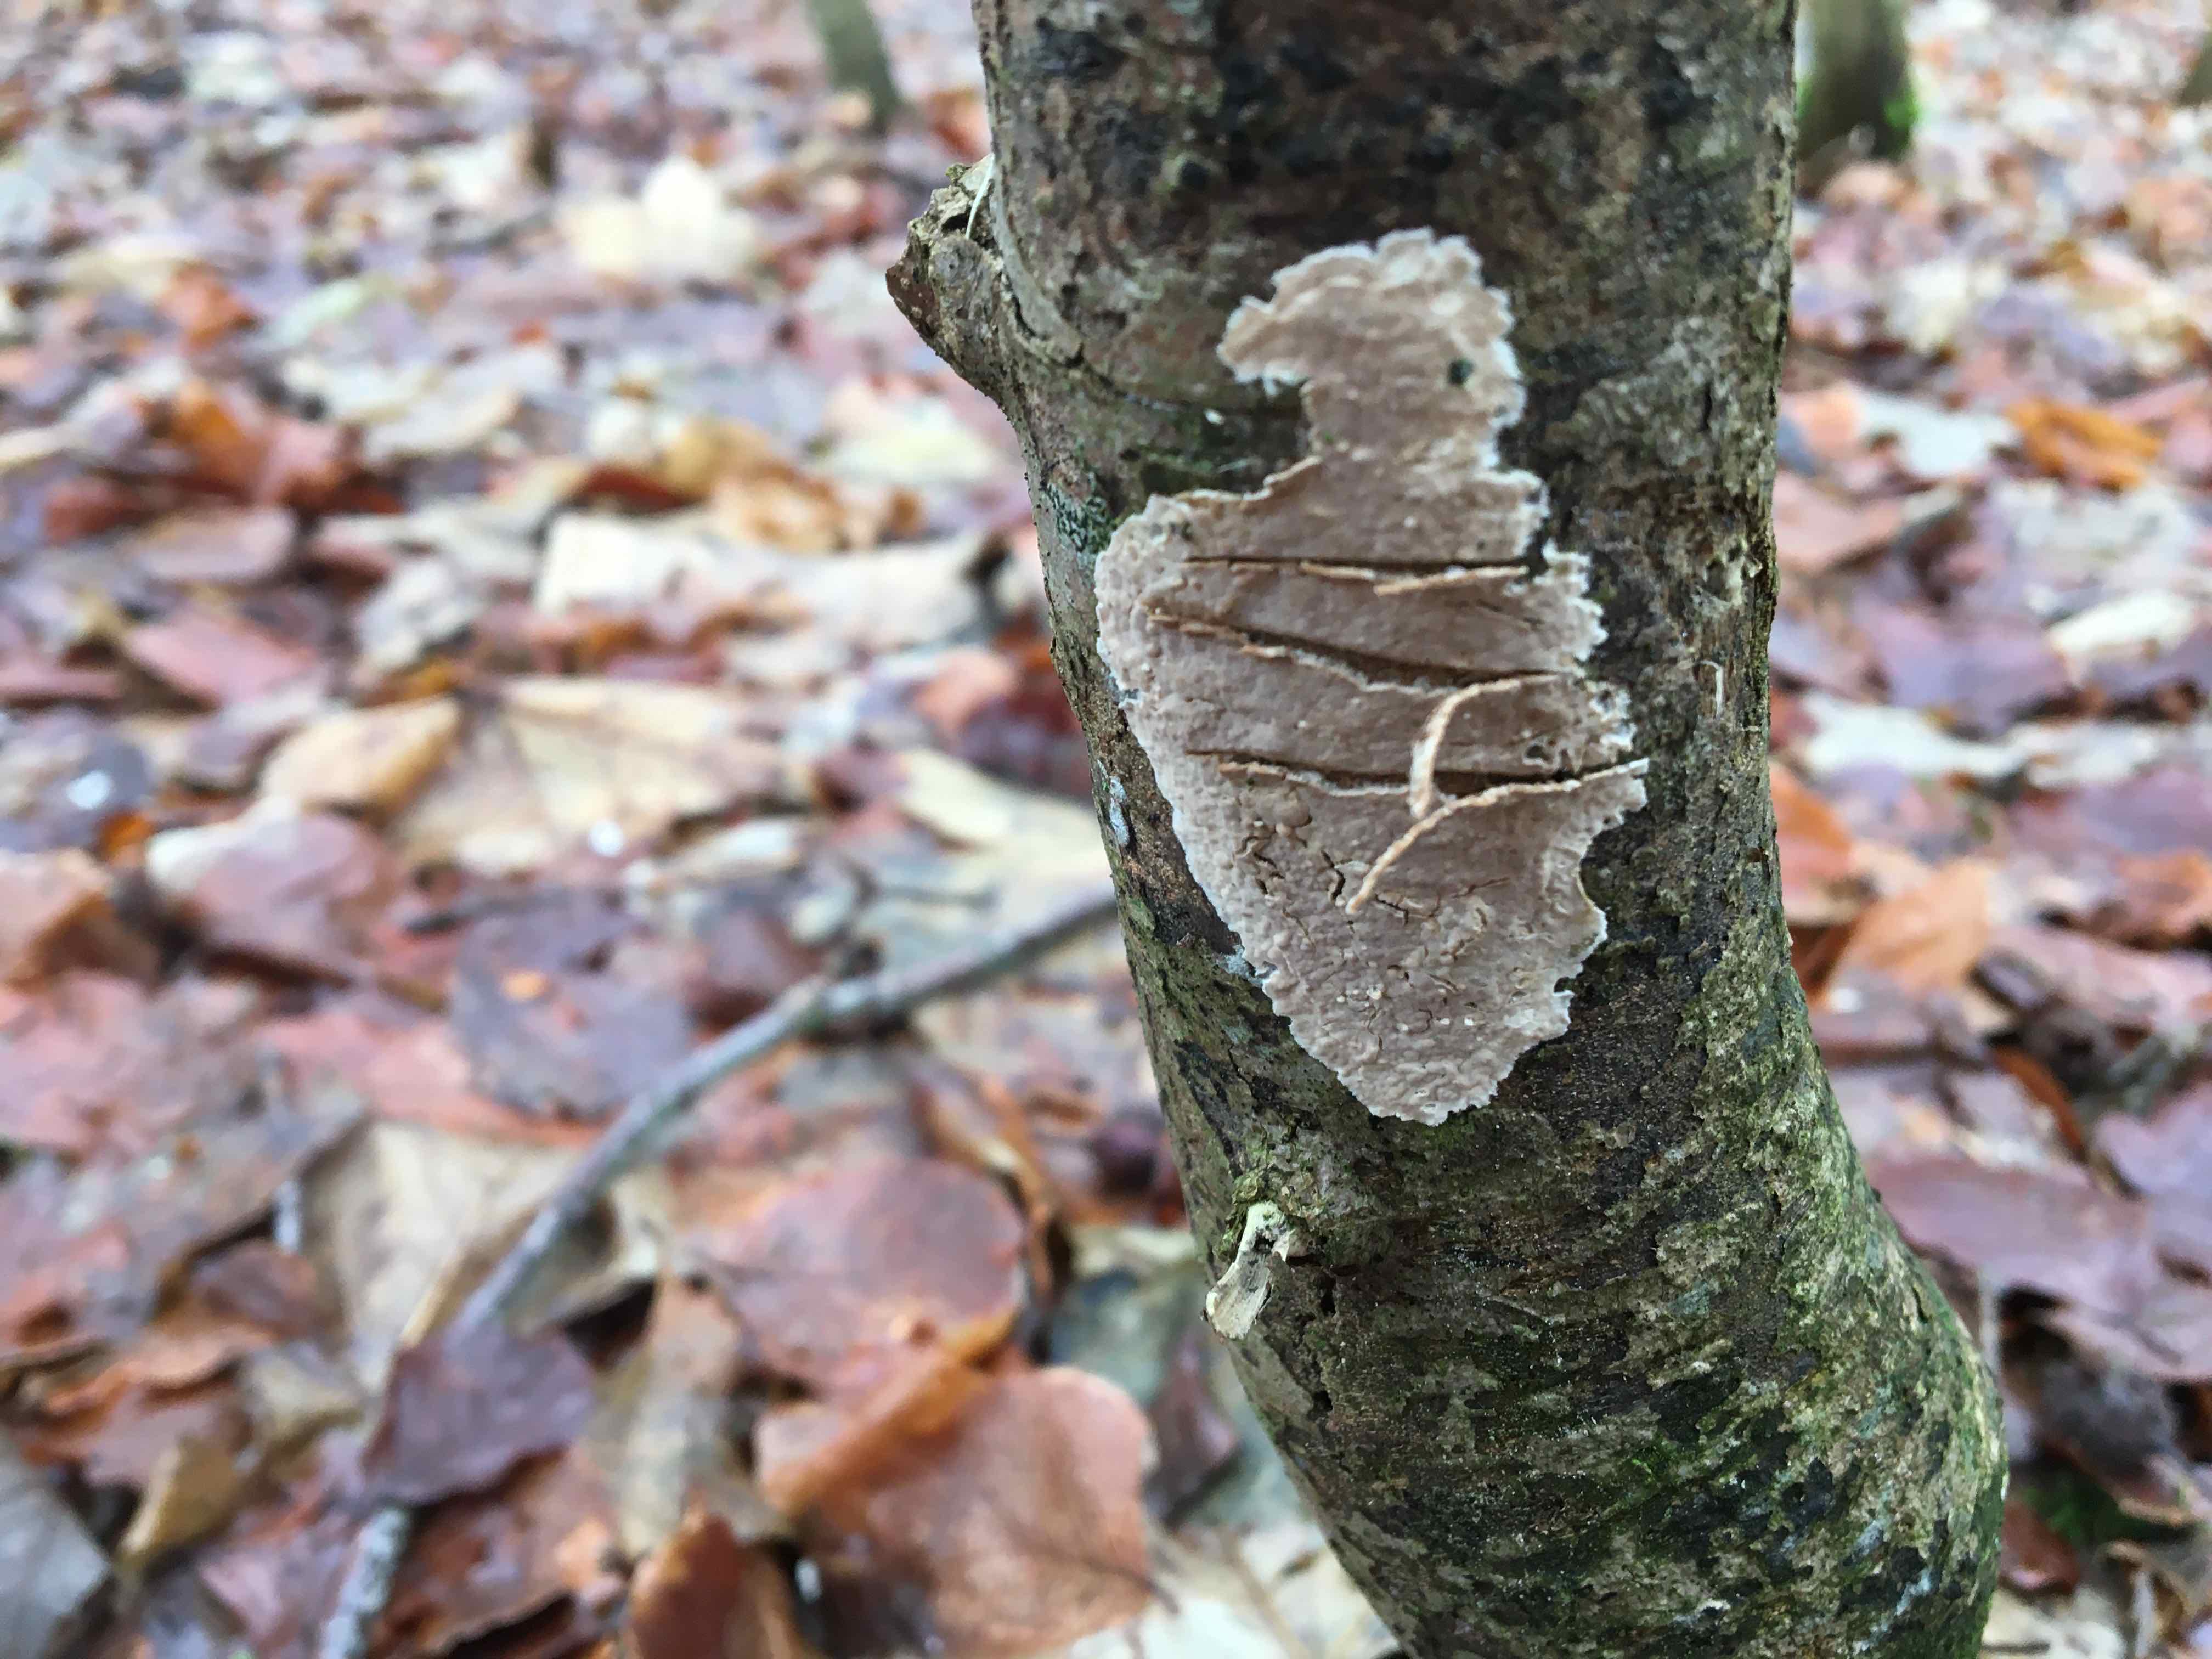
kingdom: Fungi
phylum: Basidiomycota
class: Agaricomycetes
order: Agaricales
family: Physalacriaceae
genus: Cylindrobasidium
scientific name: Cylindrobasidium evolvens
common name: sprækkehinde
